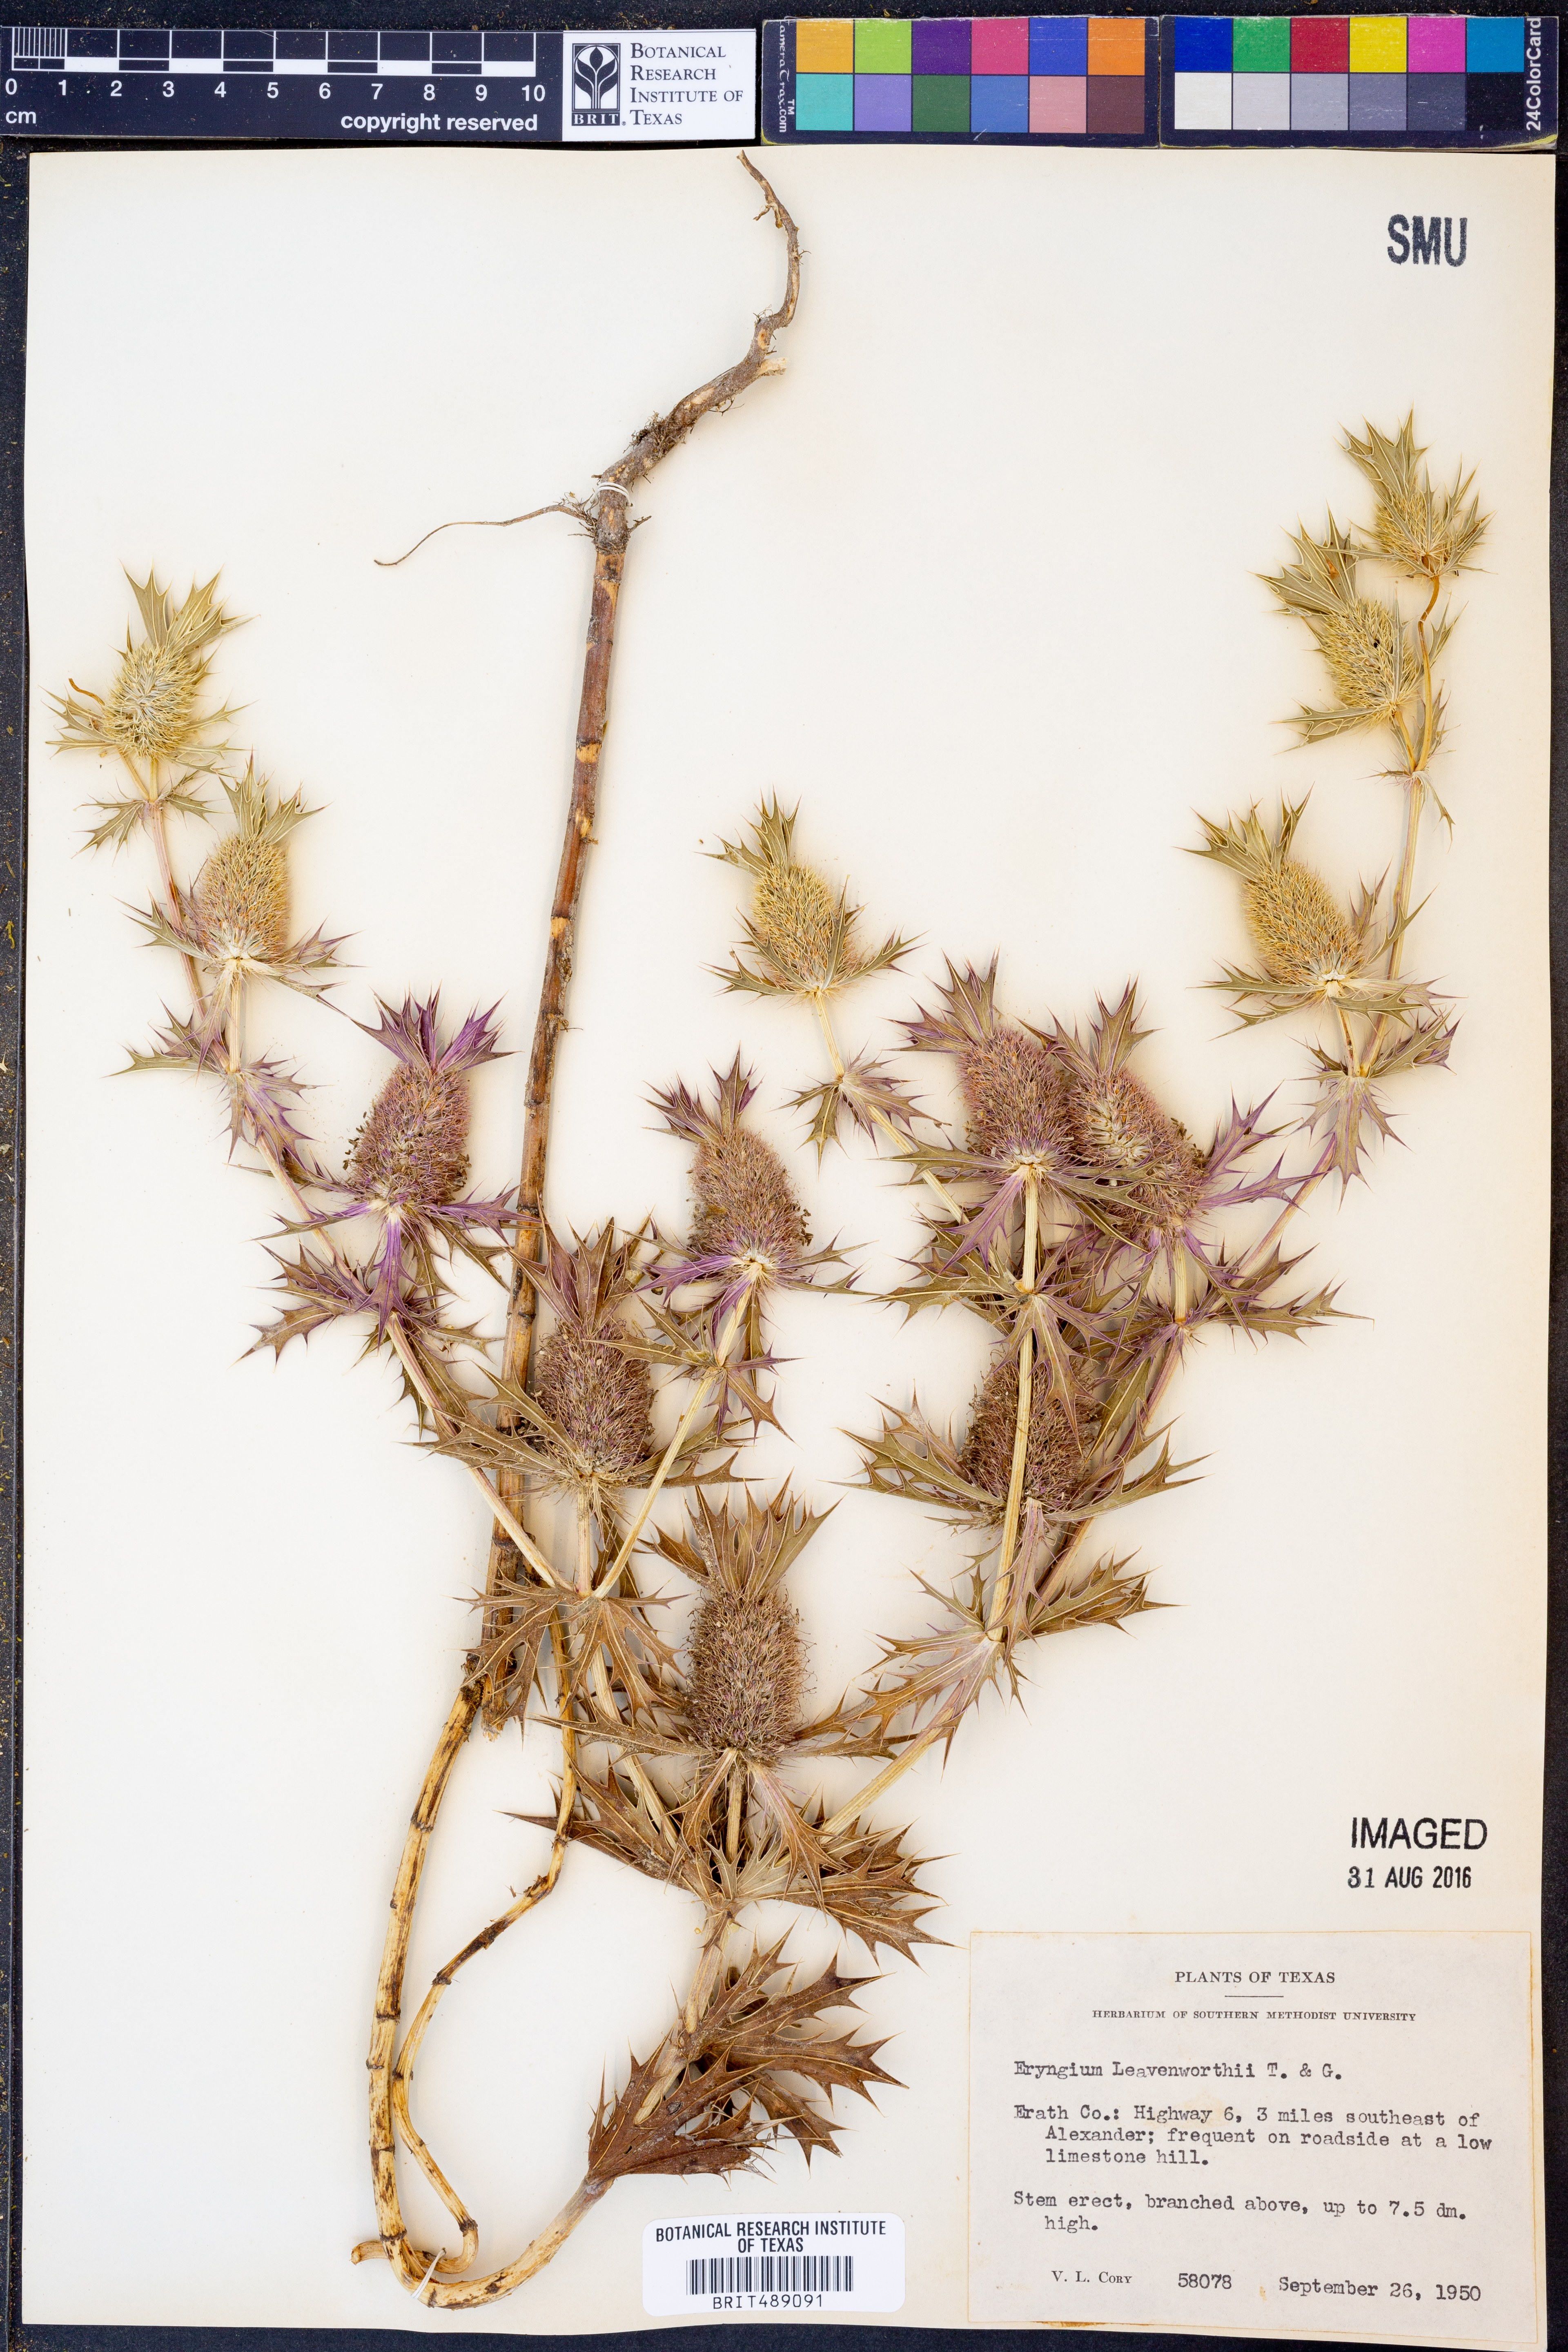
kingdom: Plantae
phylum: Tracheophyta
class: Magnoliopsida
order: Apiales
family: Apiaceae
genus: Eryngium
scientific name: Eryngium leavenworthii
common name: Leavenworth's eryngo
